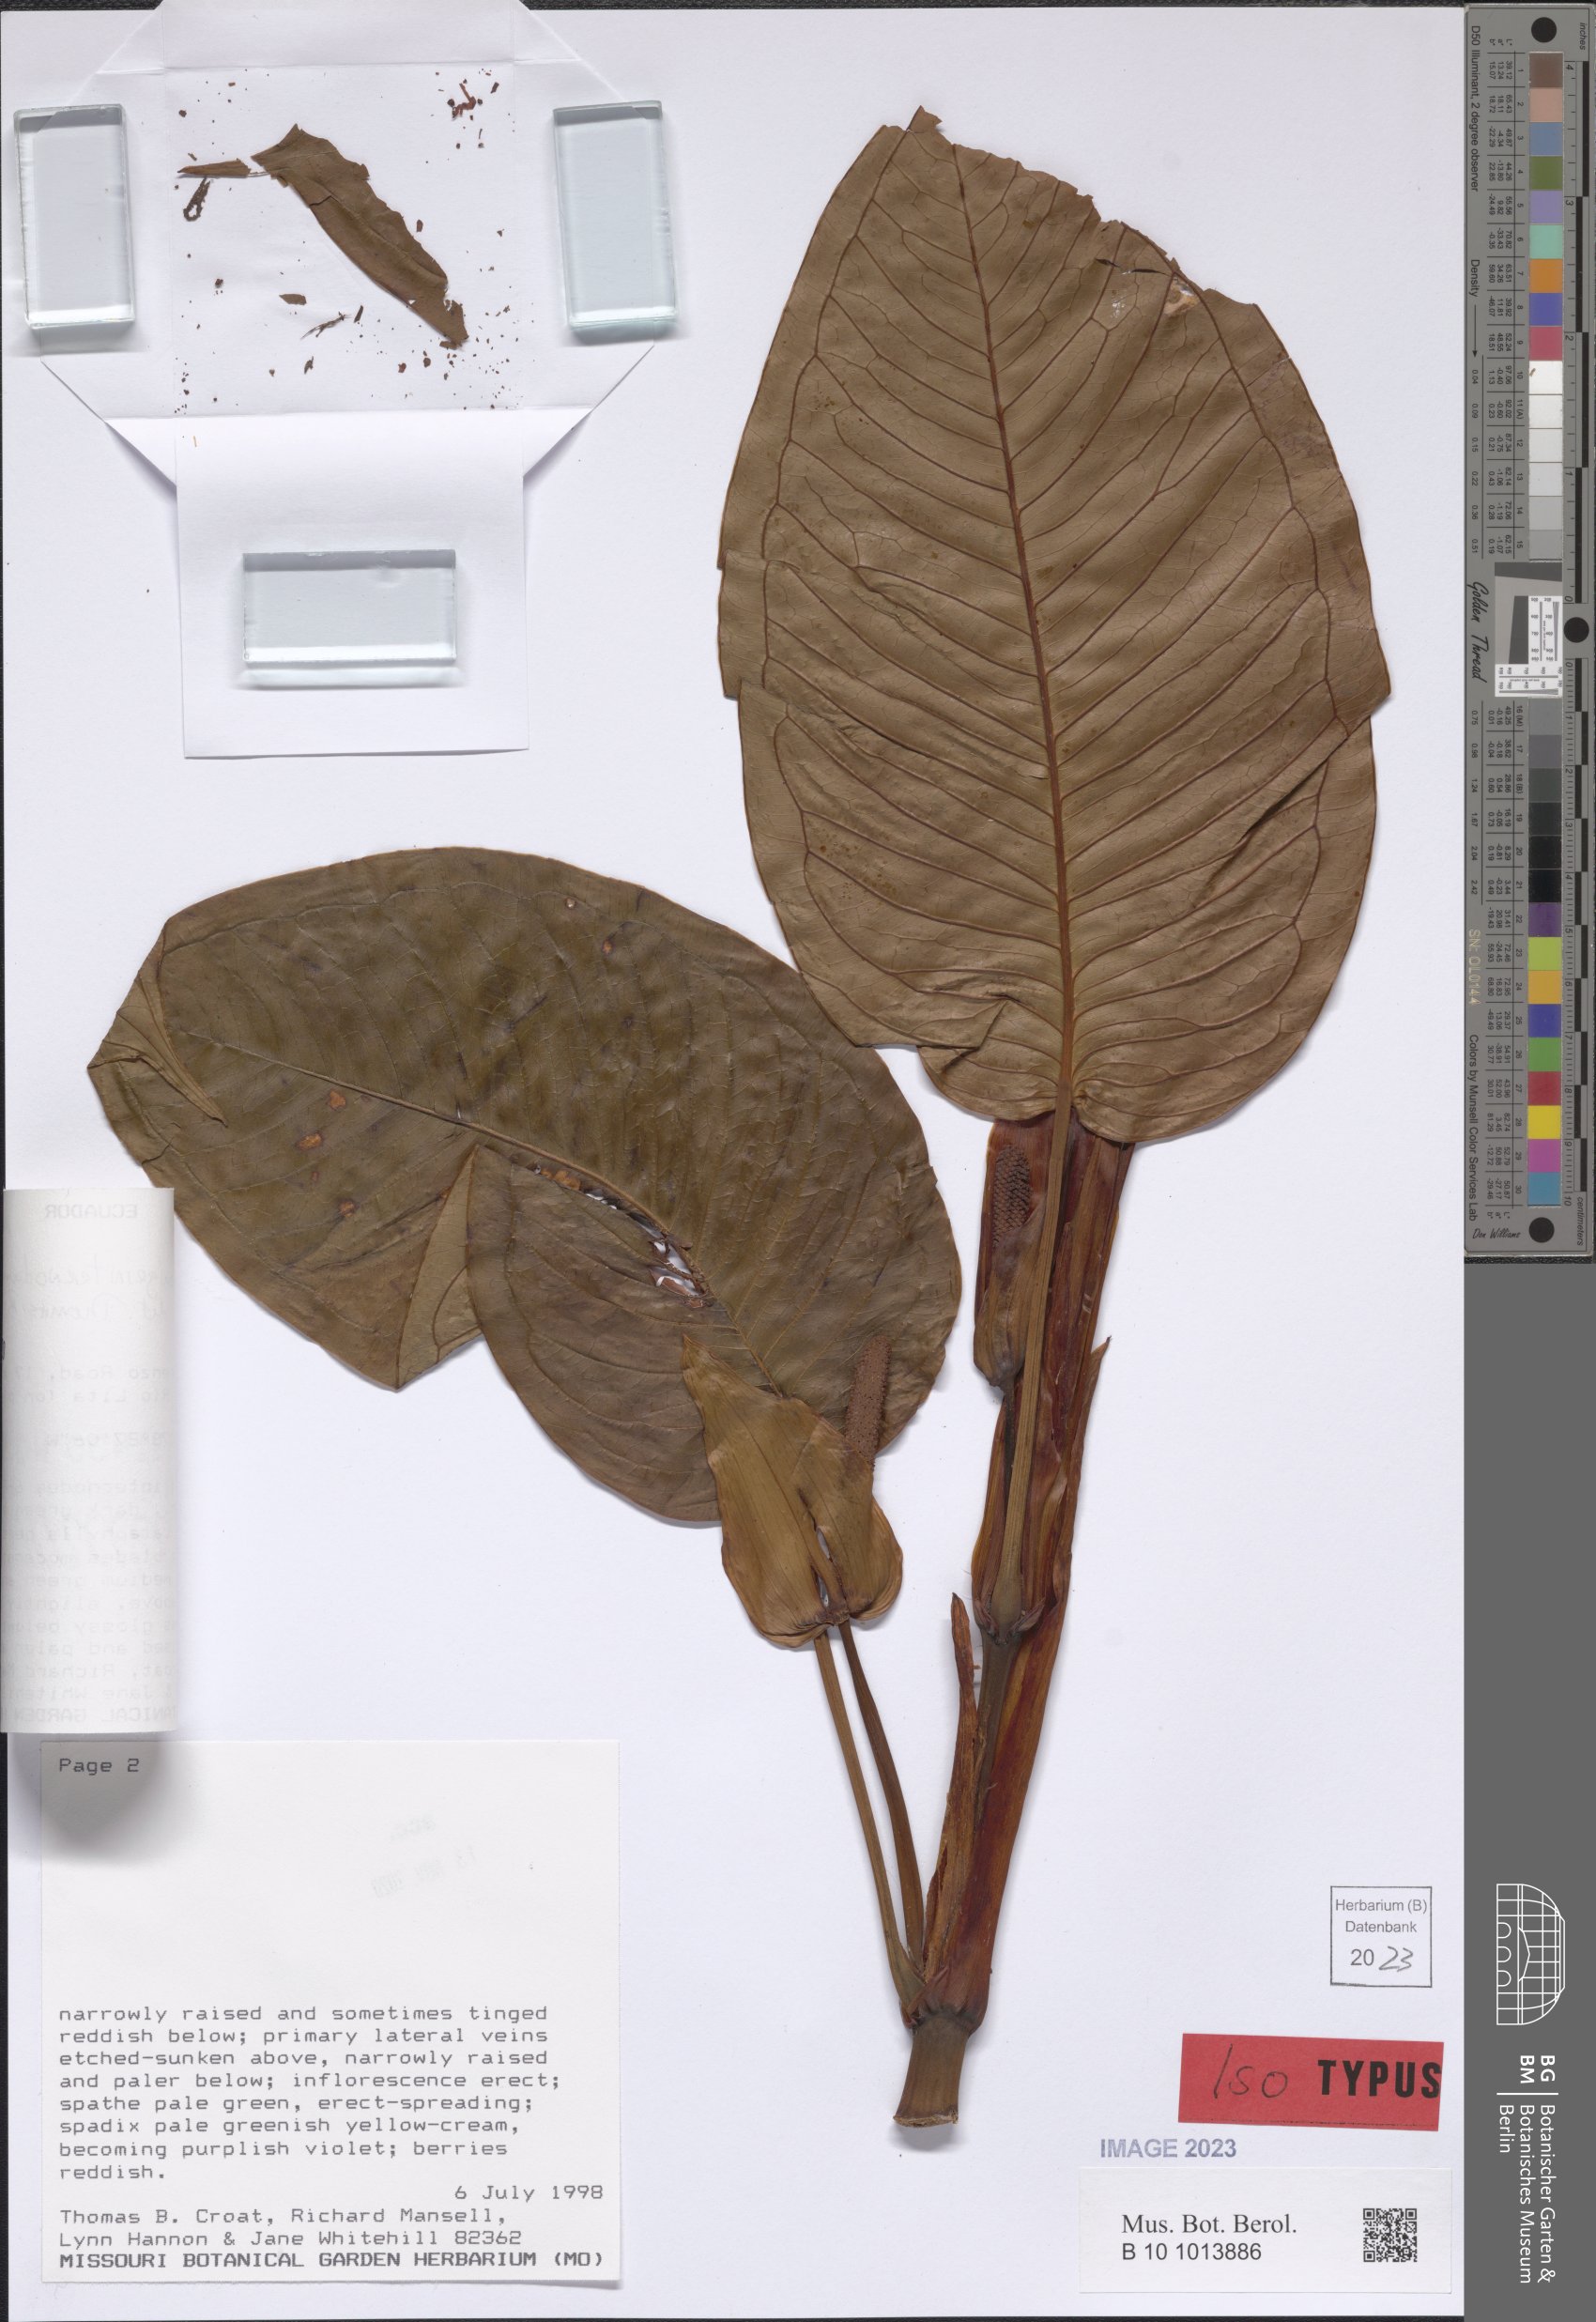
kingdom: Plantae
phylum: Tracheophyta
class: Liliopsida
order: Alismatales
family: Araceae
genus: Anthurium
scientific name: Anthurium longeinternodum
